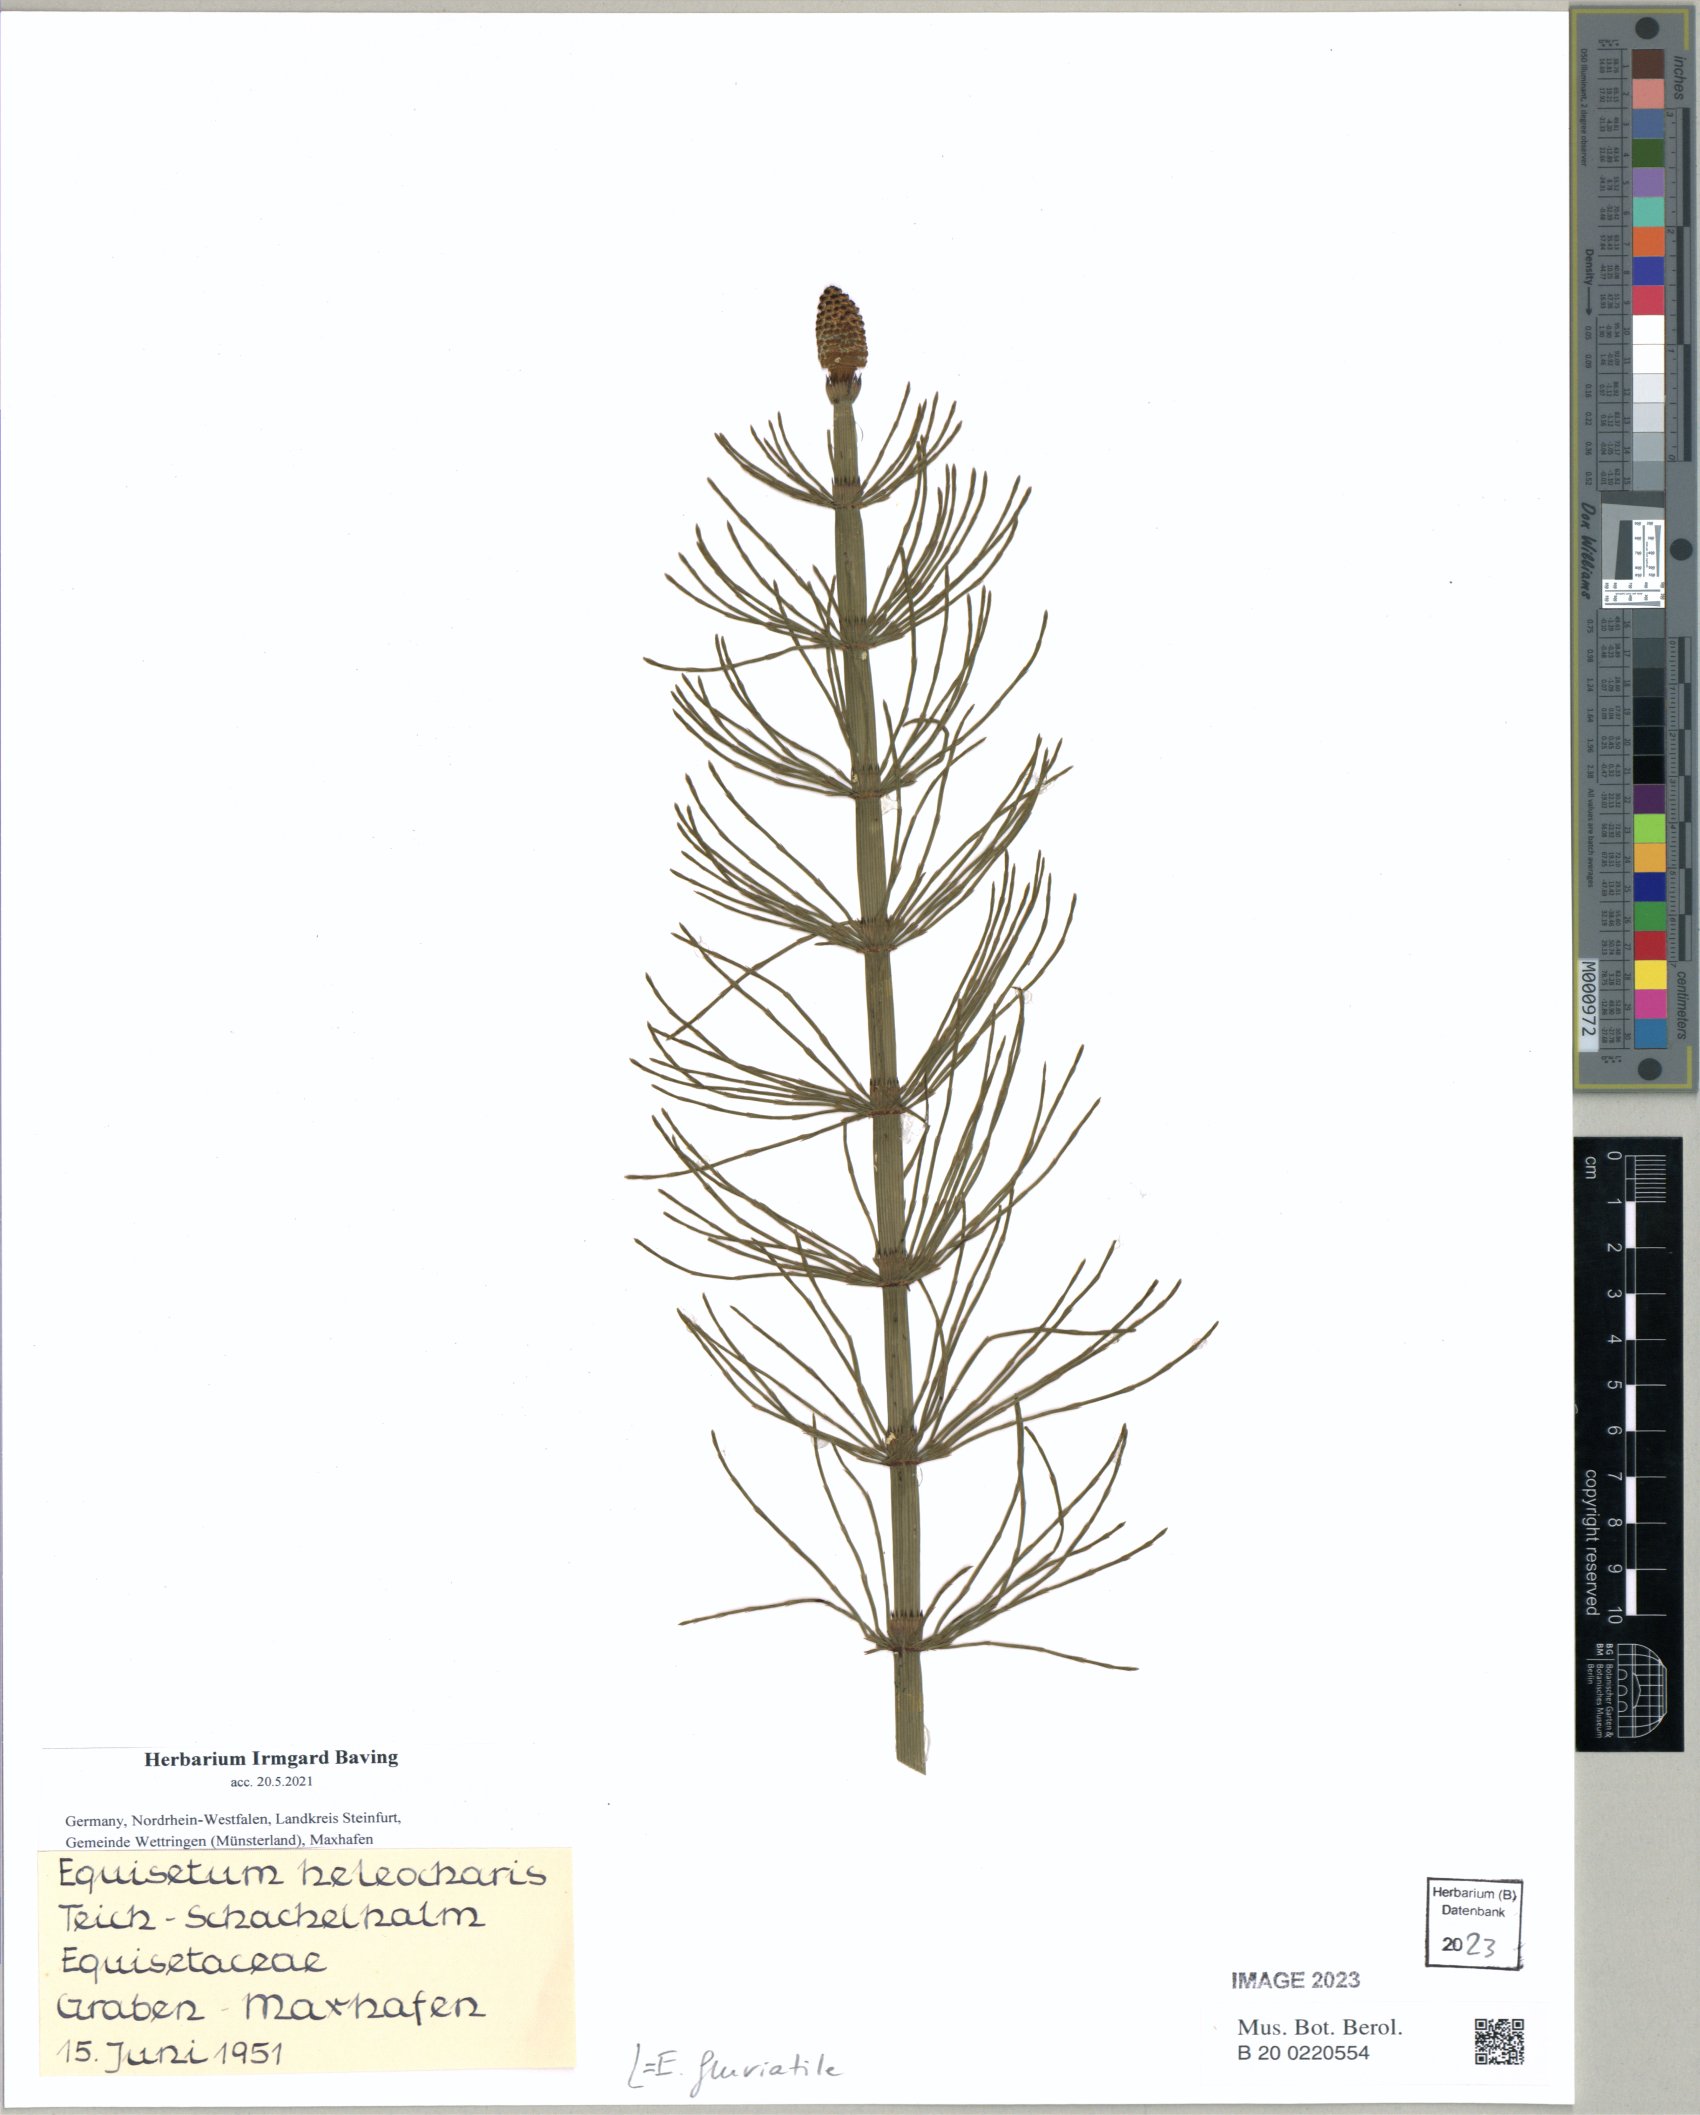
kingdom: Plantae
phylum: Tracheophyta
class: Polypodiopsida
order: Equisetales
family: Equisetaceae
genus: Equisetum
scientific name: Equisetum fluviatile
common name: Water horsetail
